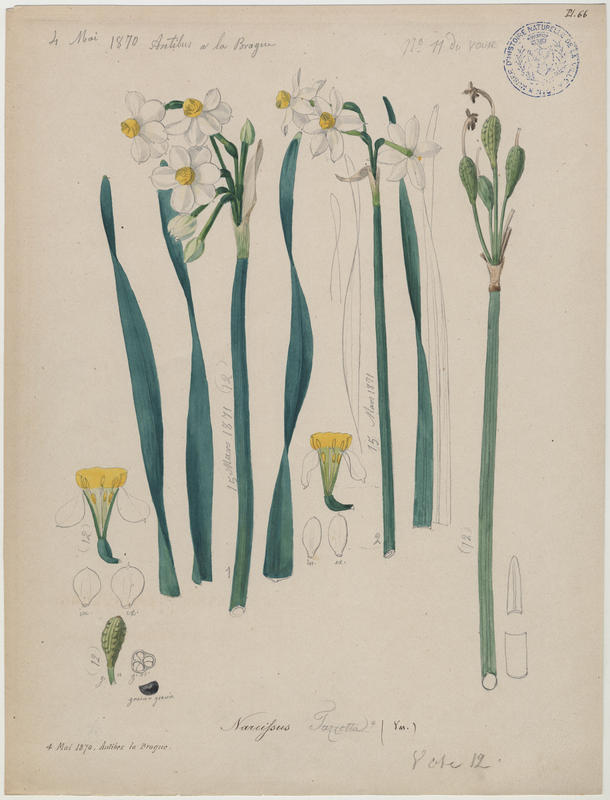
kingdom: Plantae
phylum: Tracheophyta
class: Liliopsida
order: Asparagales
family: Amaryllidaceae
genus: Narcissus
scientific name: Narcissus tazetta
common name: Bunch-flowered daffodil
